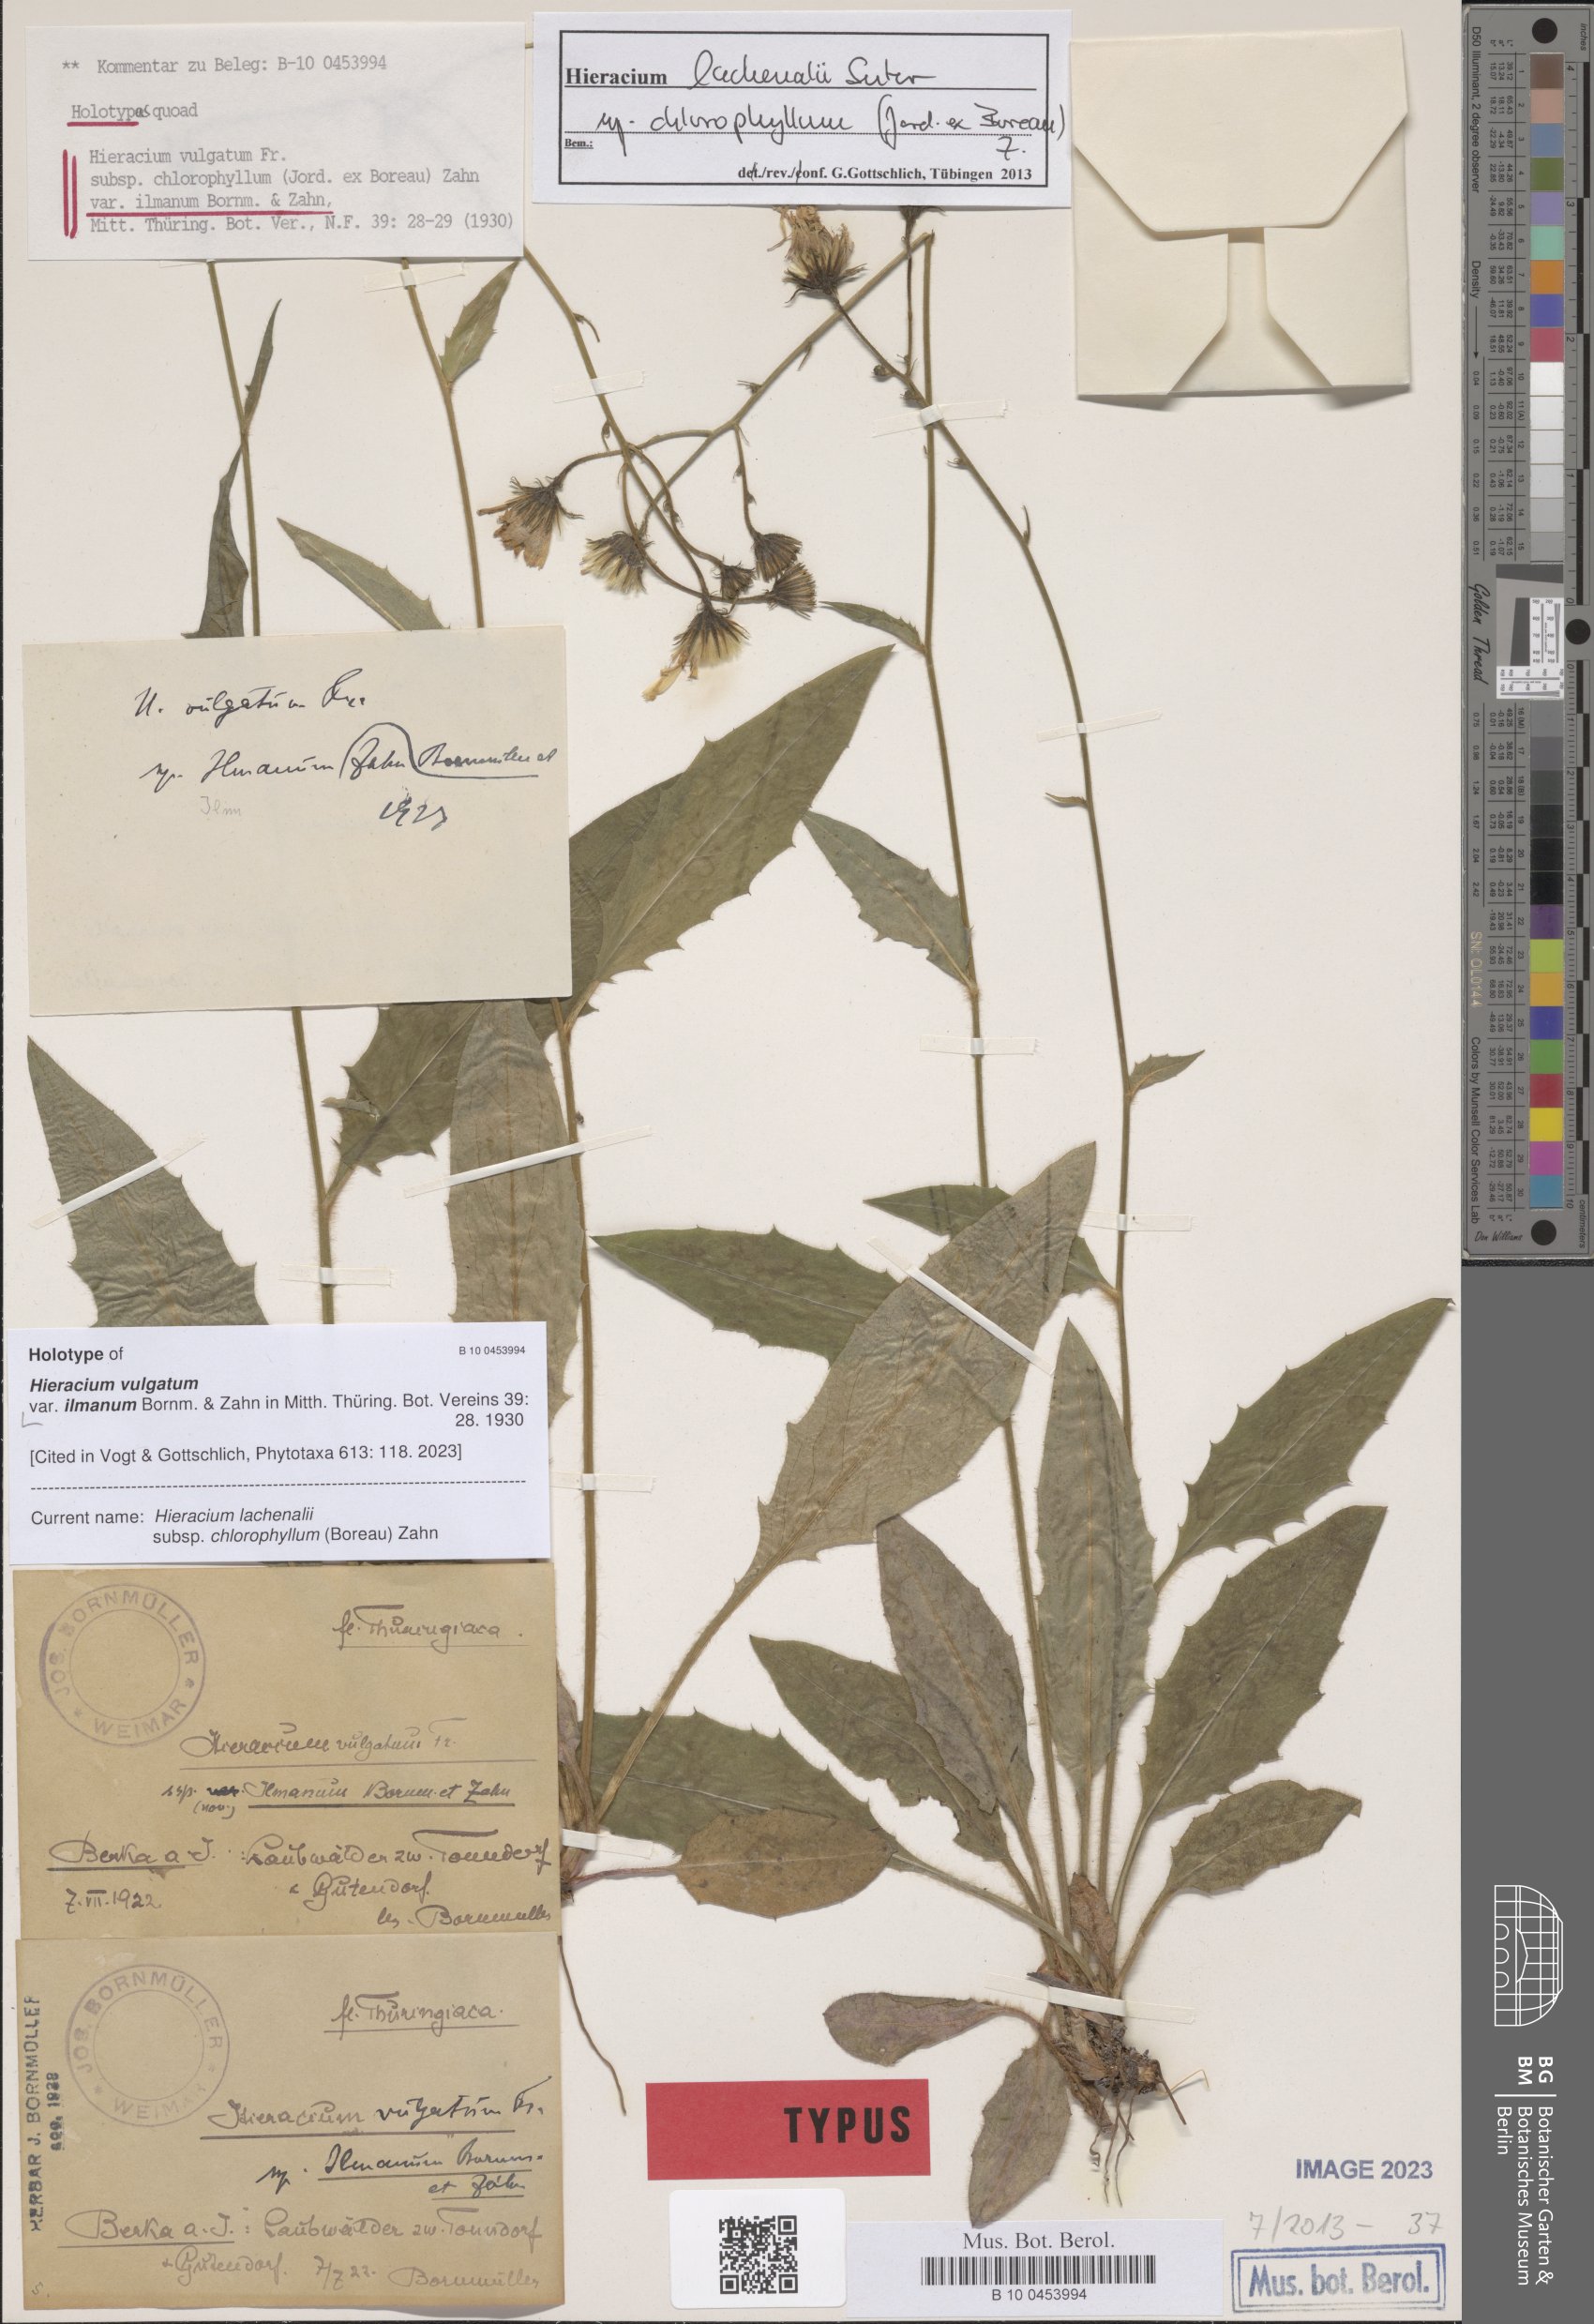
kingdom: Plantae
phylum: Tracheophyta
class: Magnoliopsida
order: Asterales
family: Asteraceae
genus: Hieracium
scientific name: Hieracium vulgatum
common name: Common hawkweed
